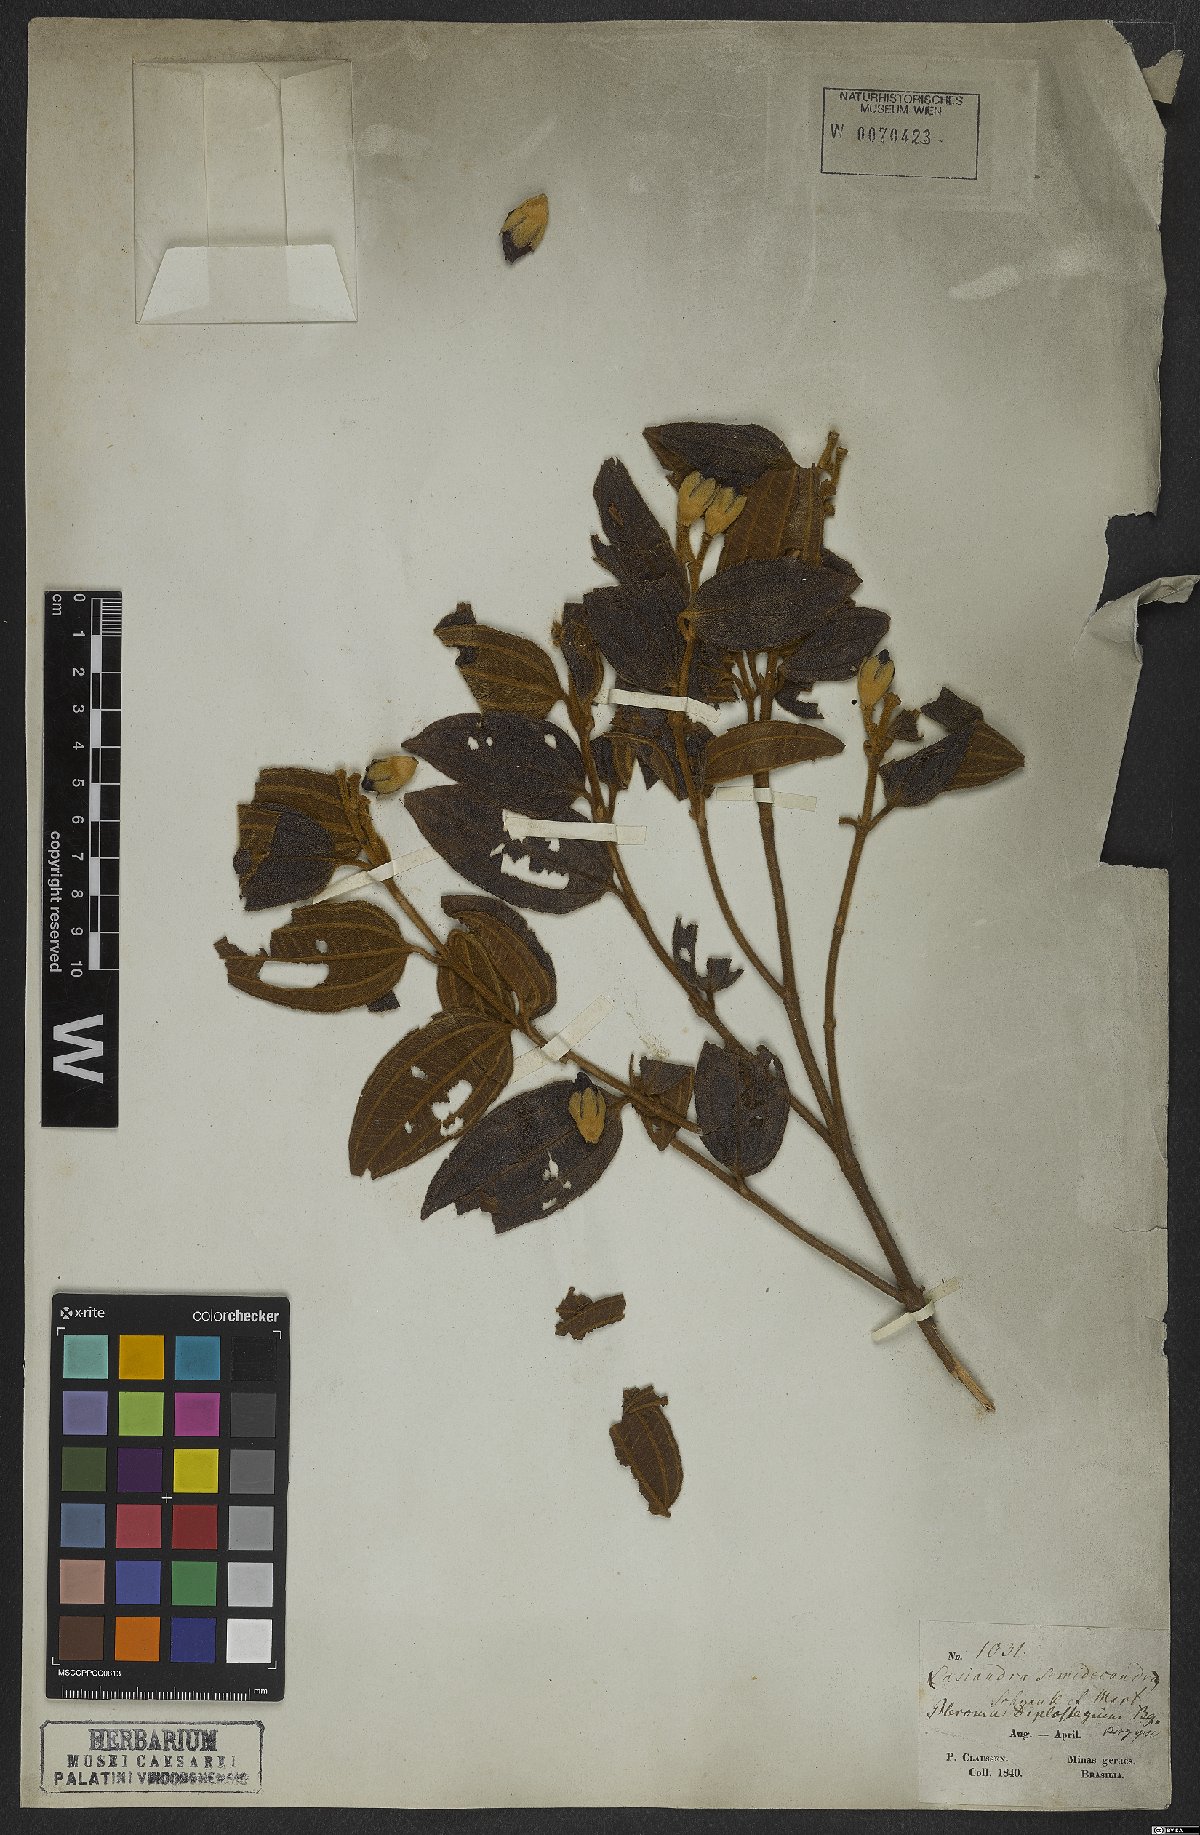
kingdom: Plantae
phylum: Tracheophyta
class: Magnoliopsida
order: Myrtales
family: Melastomataceae
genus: Pleroma
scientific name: Pleroma canescens
